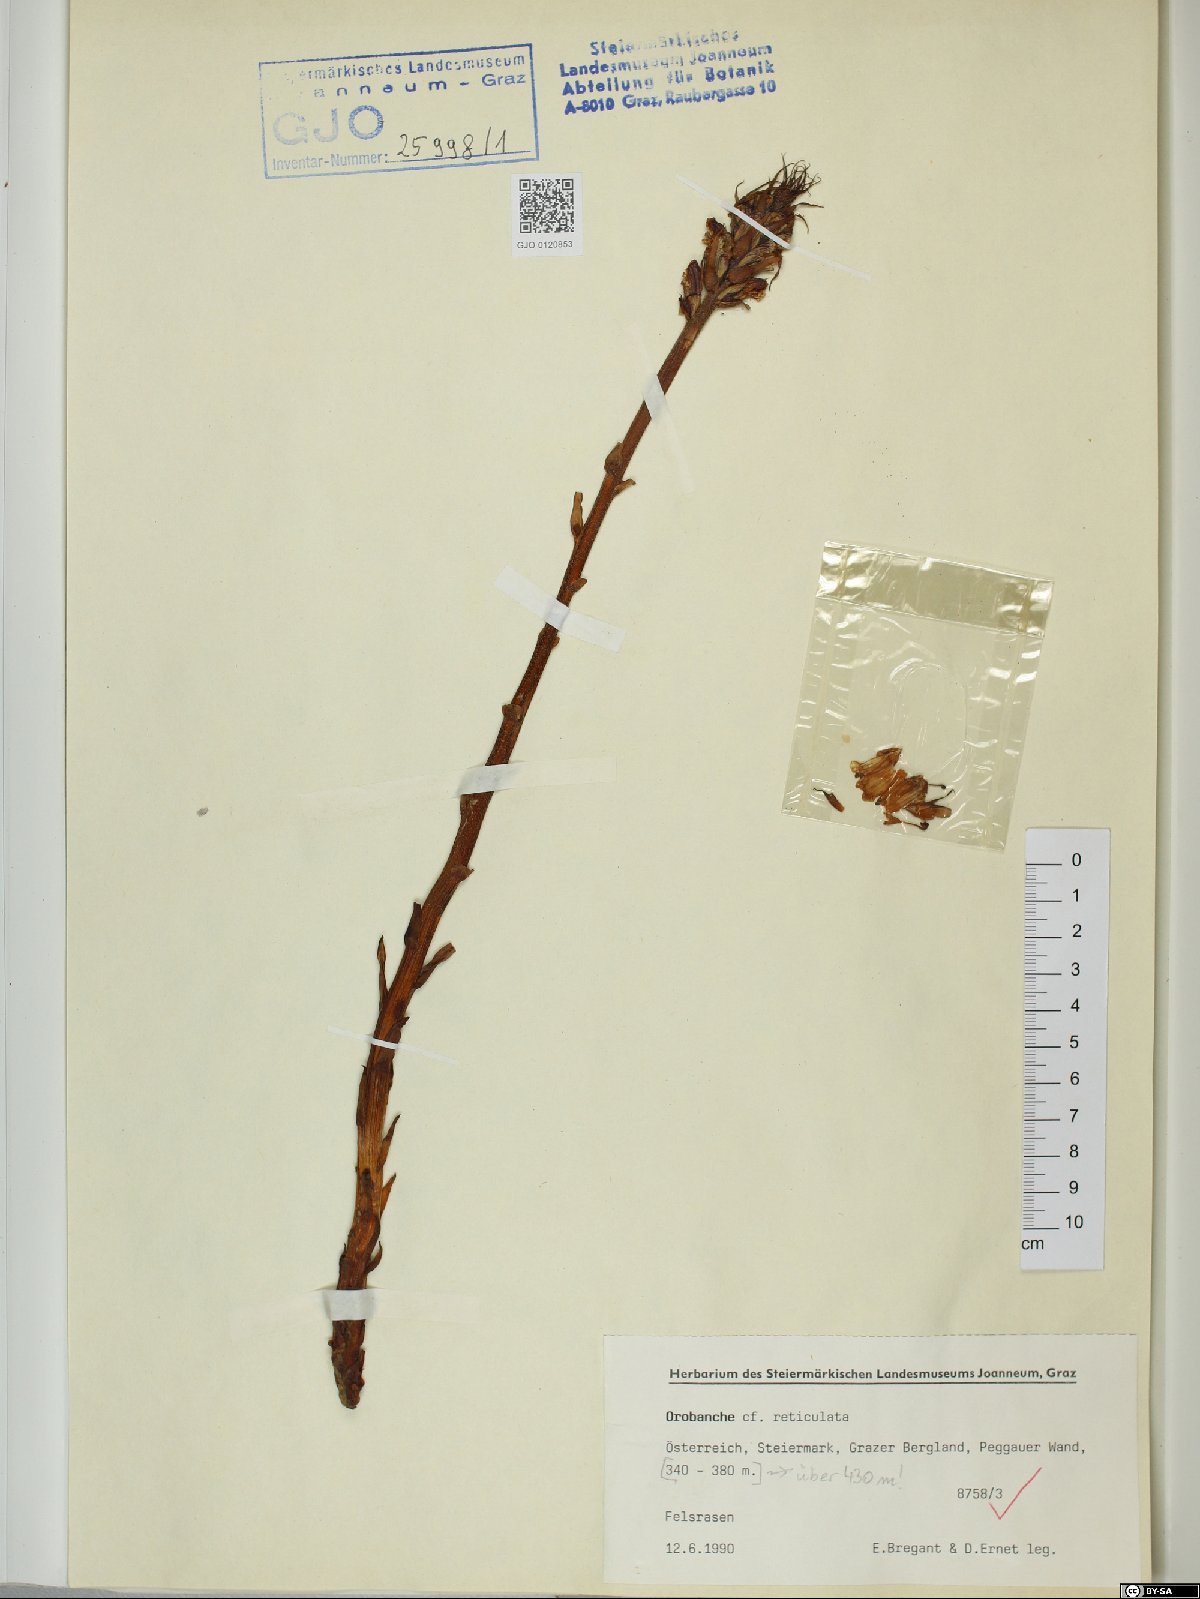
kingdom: Plantae
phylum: Tracheophyta
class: Magnoliopsida
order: Lamiales
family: Orobanchaceae
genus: Orobanche
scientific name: Orobanche reticulata
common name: Thistle broomrape
